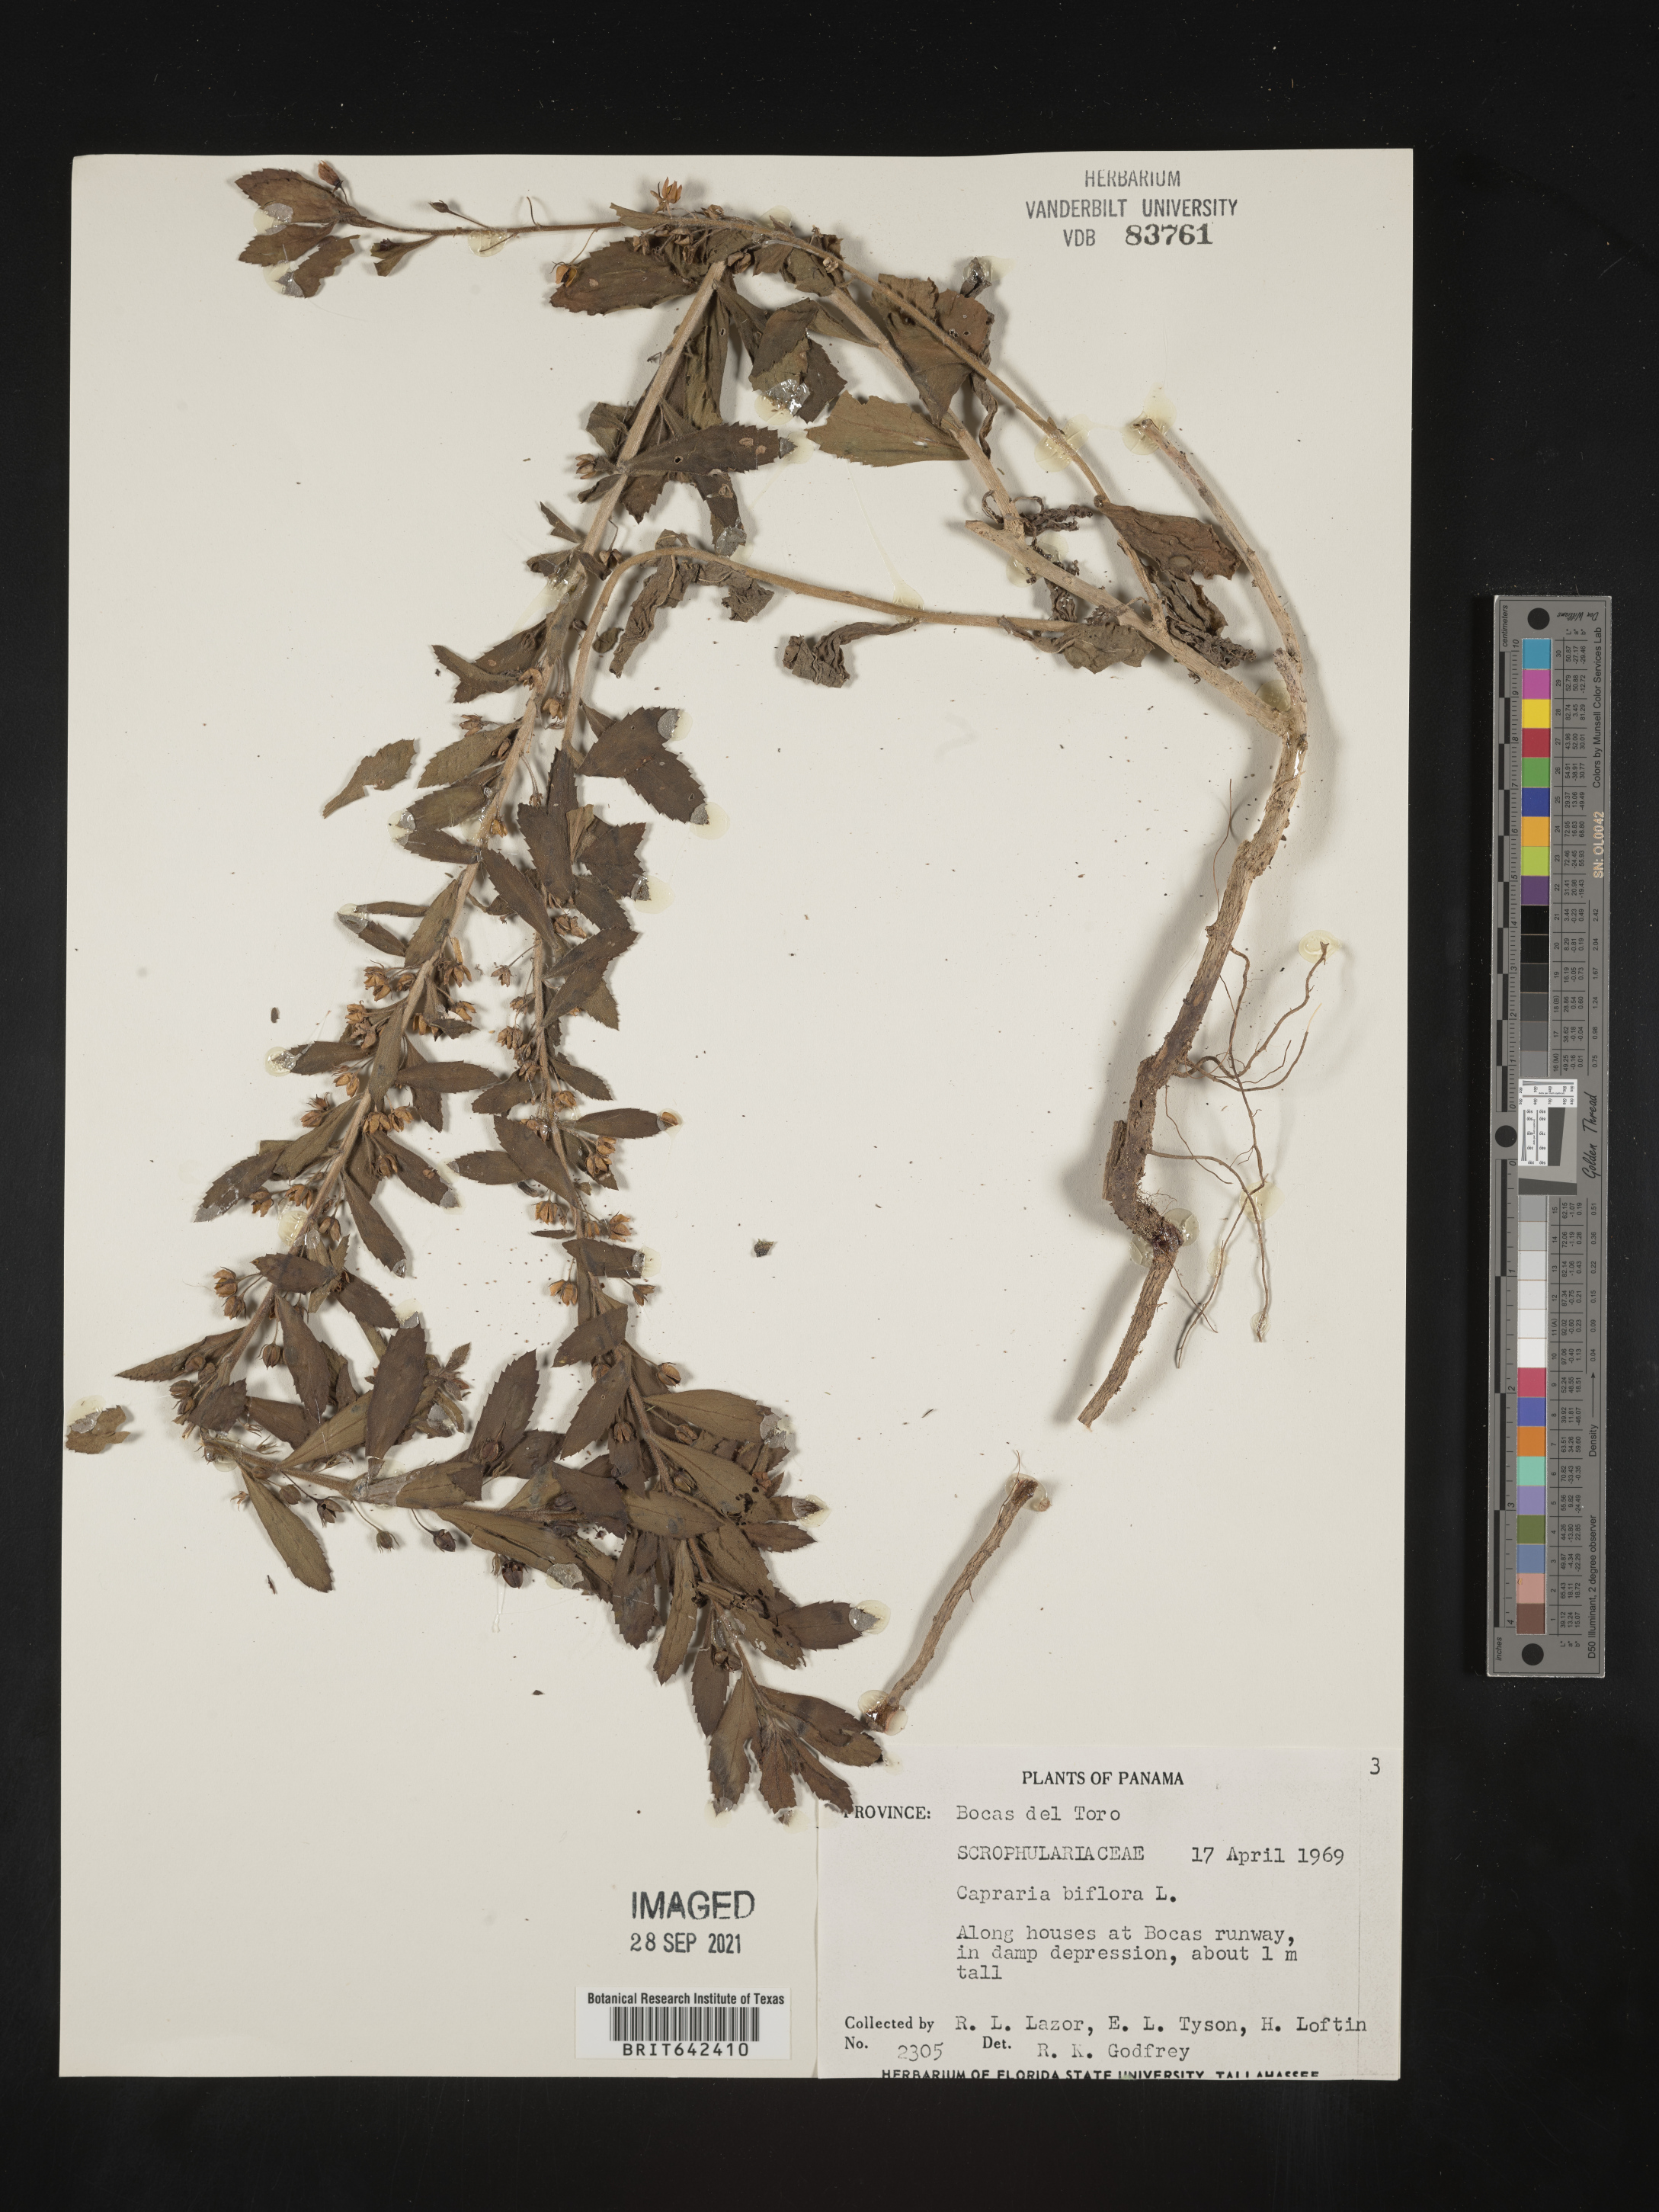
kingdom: Plantae
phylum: Tracheophyta
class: Magnoliopsida
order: Lamiales
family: Scrophulariaceae
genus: Capraria
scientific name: Capraria
